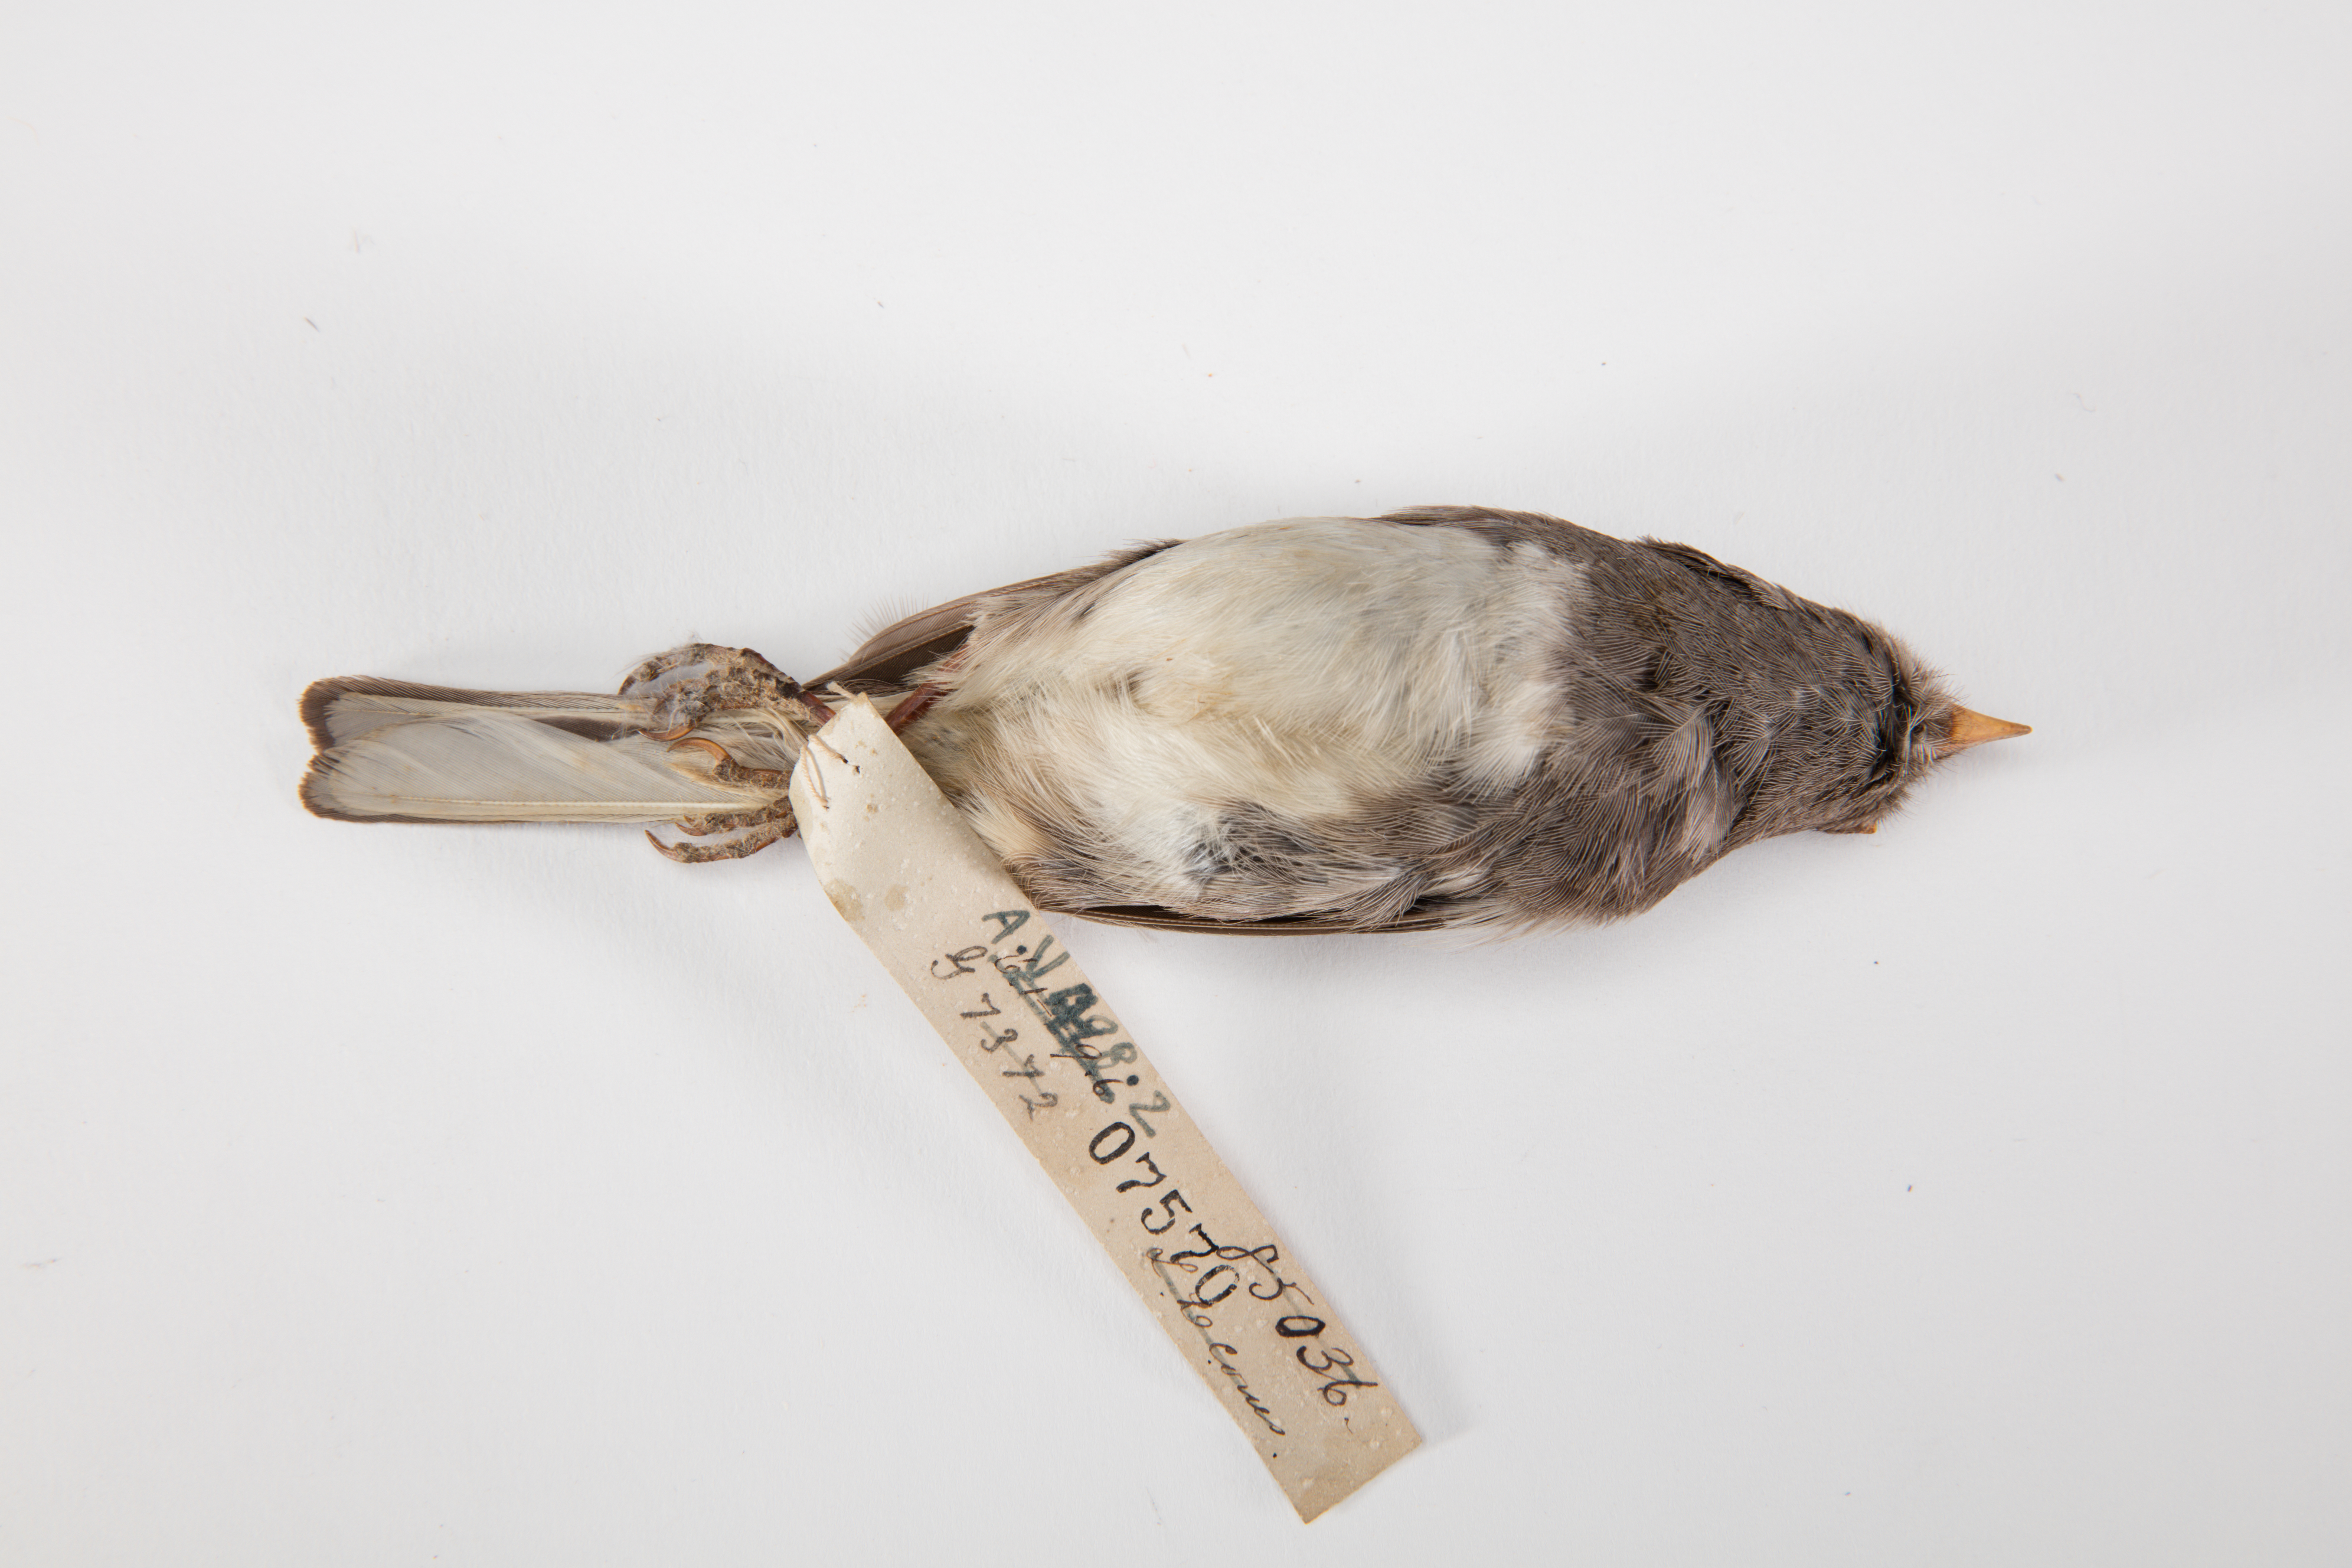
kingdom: Animalia
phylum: Chordata
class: Aves
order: Passeriformes
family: Passerellidae
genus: Junco
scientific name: Junco hyemalis
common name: Dark-eyed junco
